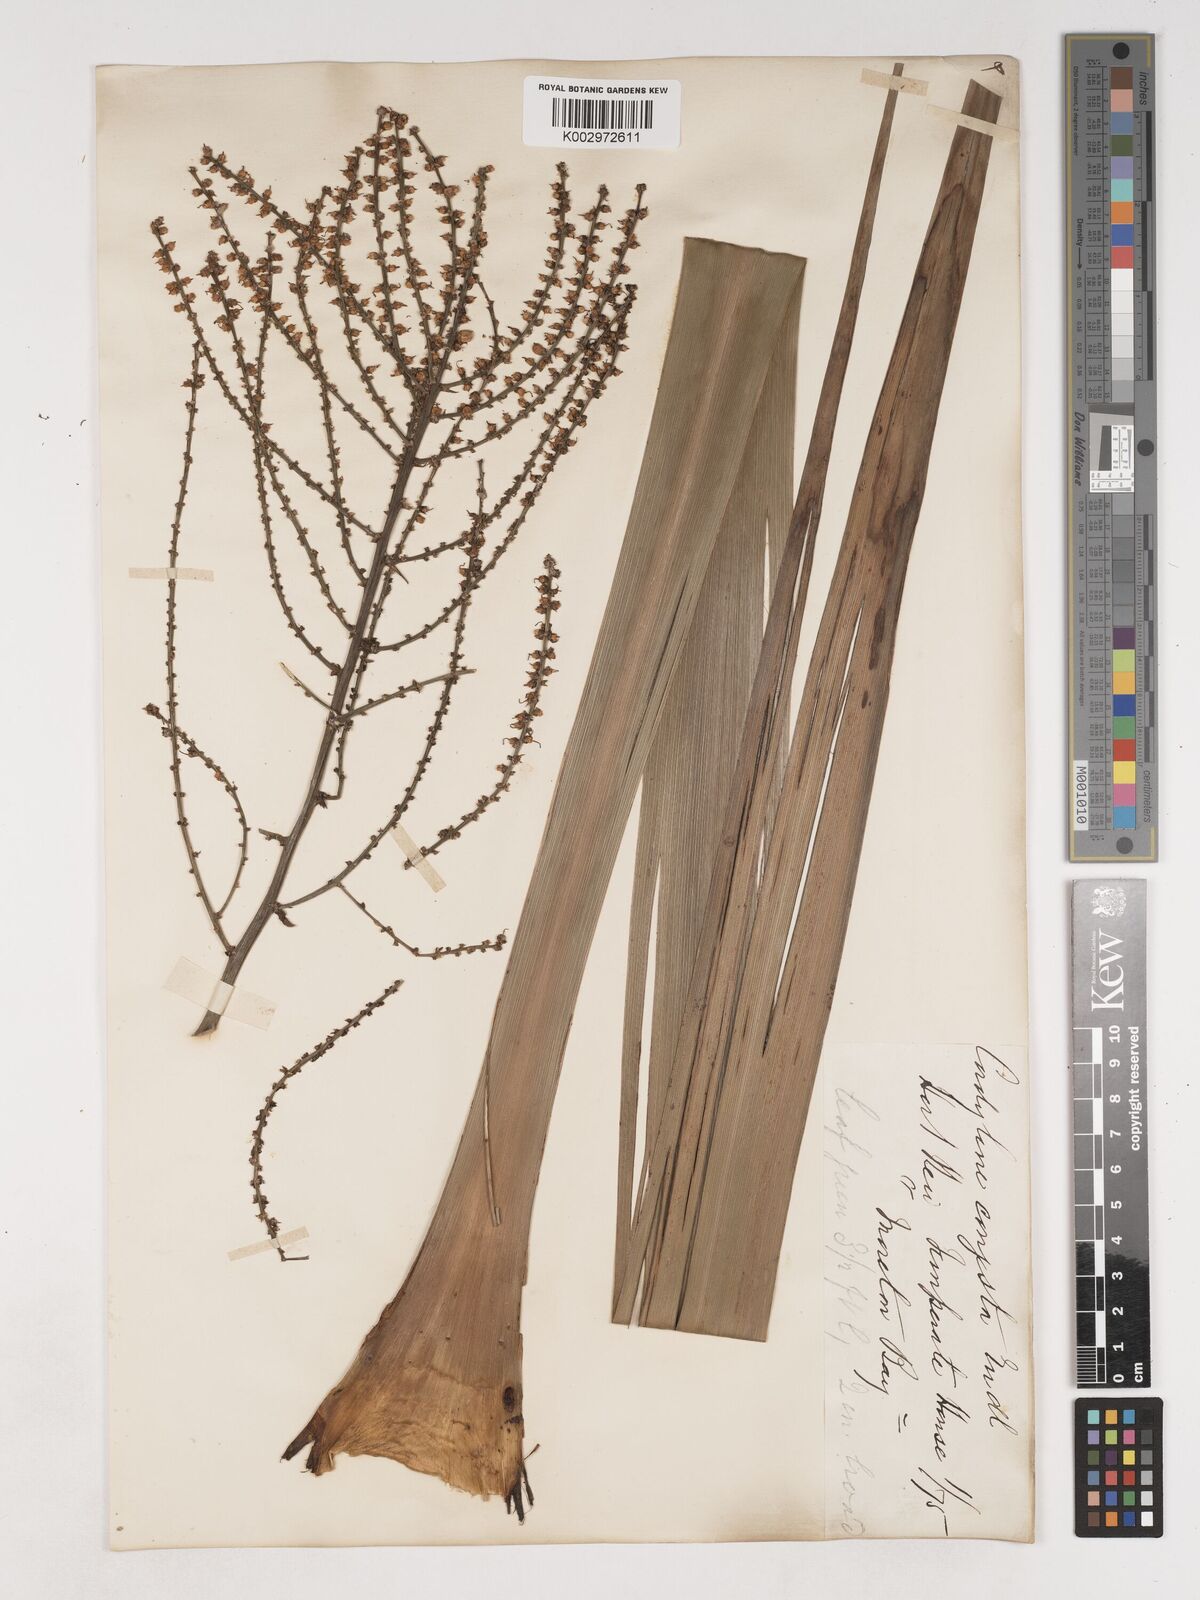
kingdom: Plantae
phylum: Tracheophyta
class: Liliopsida
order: Asparagales
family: Asparagaceae
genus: Cordyline
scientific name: Cordyline stricta
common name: Narrow-leaf palm-lily
